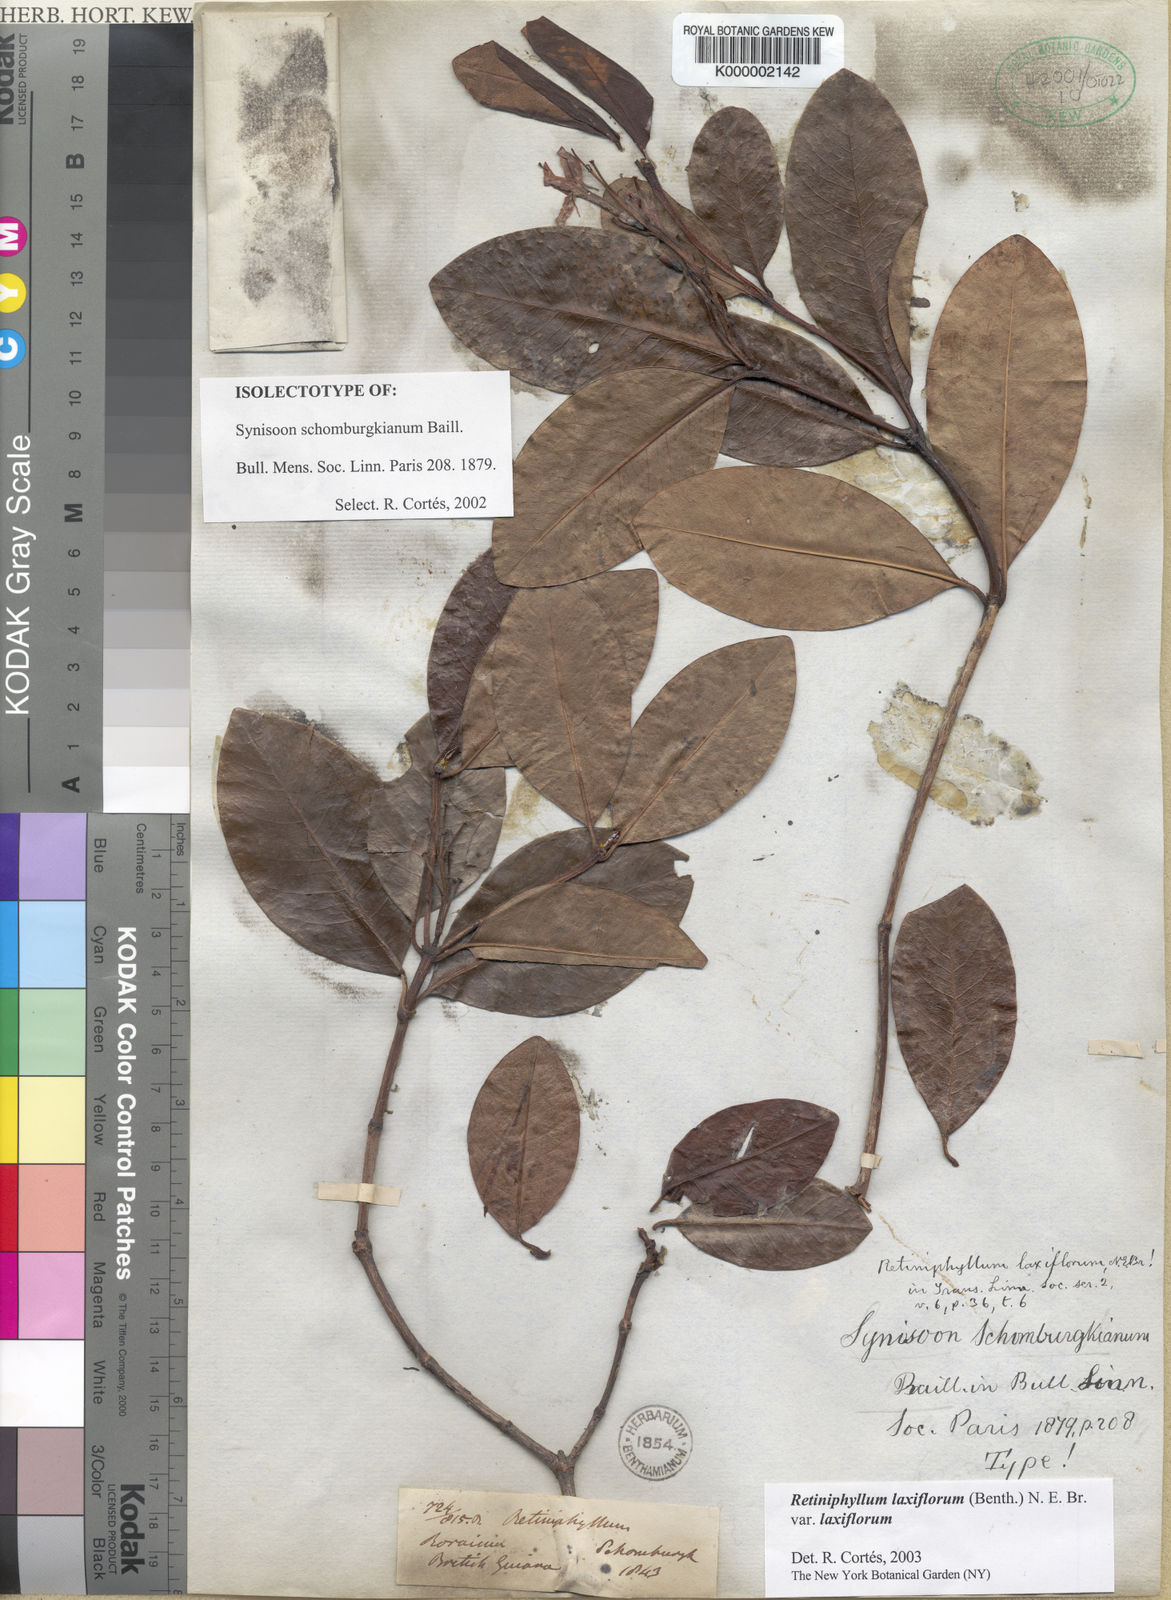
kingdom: Plantae
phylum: Tracheophyta
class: Magnoliopsida
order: Gentianales
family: Rubiaceae
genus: Retiniphyllum
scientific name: Retiniphyllum laxiflorum
